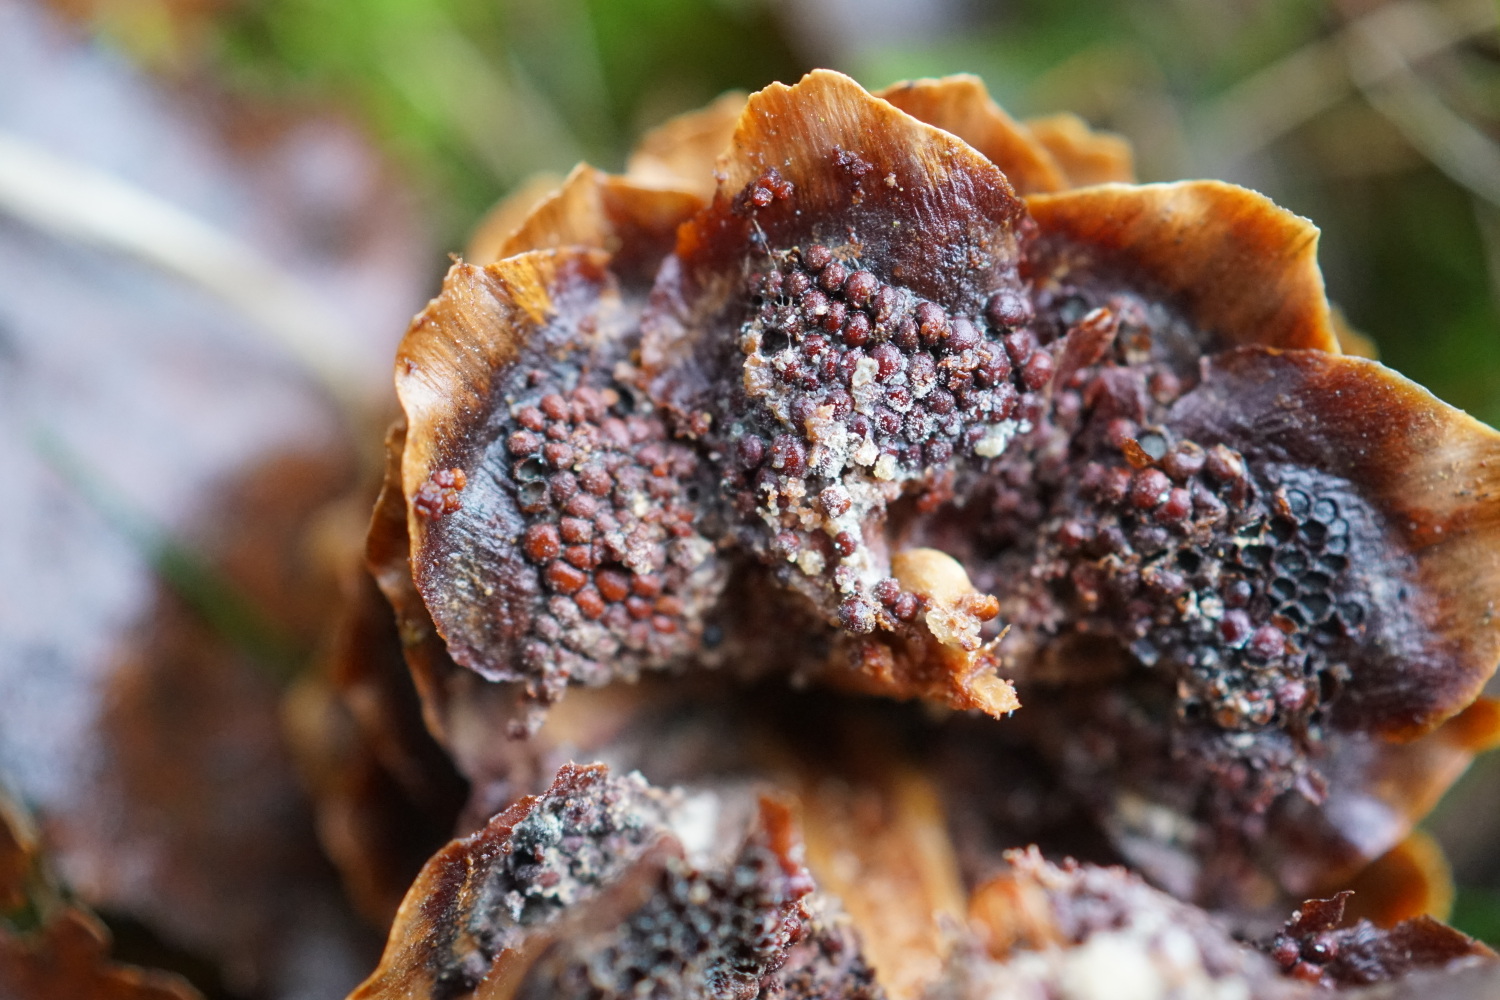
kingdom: Fungi
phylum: Basidiomycota
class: Pucciniomycetes
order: Pucciniales
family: Pucciniastraceae
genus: Thekopsora
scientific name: Thekopsora areolata
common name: grankogle-nålerust
